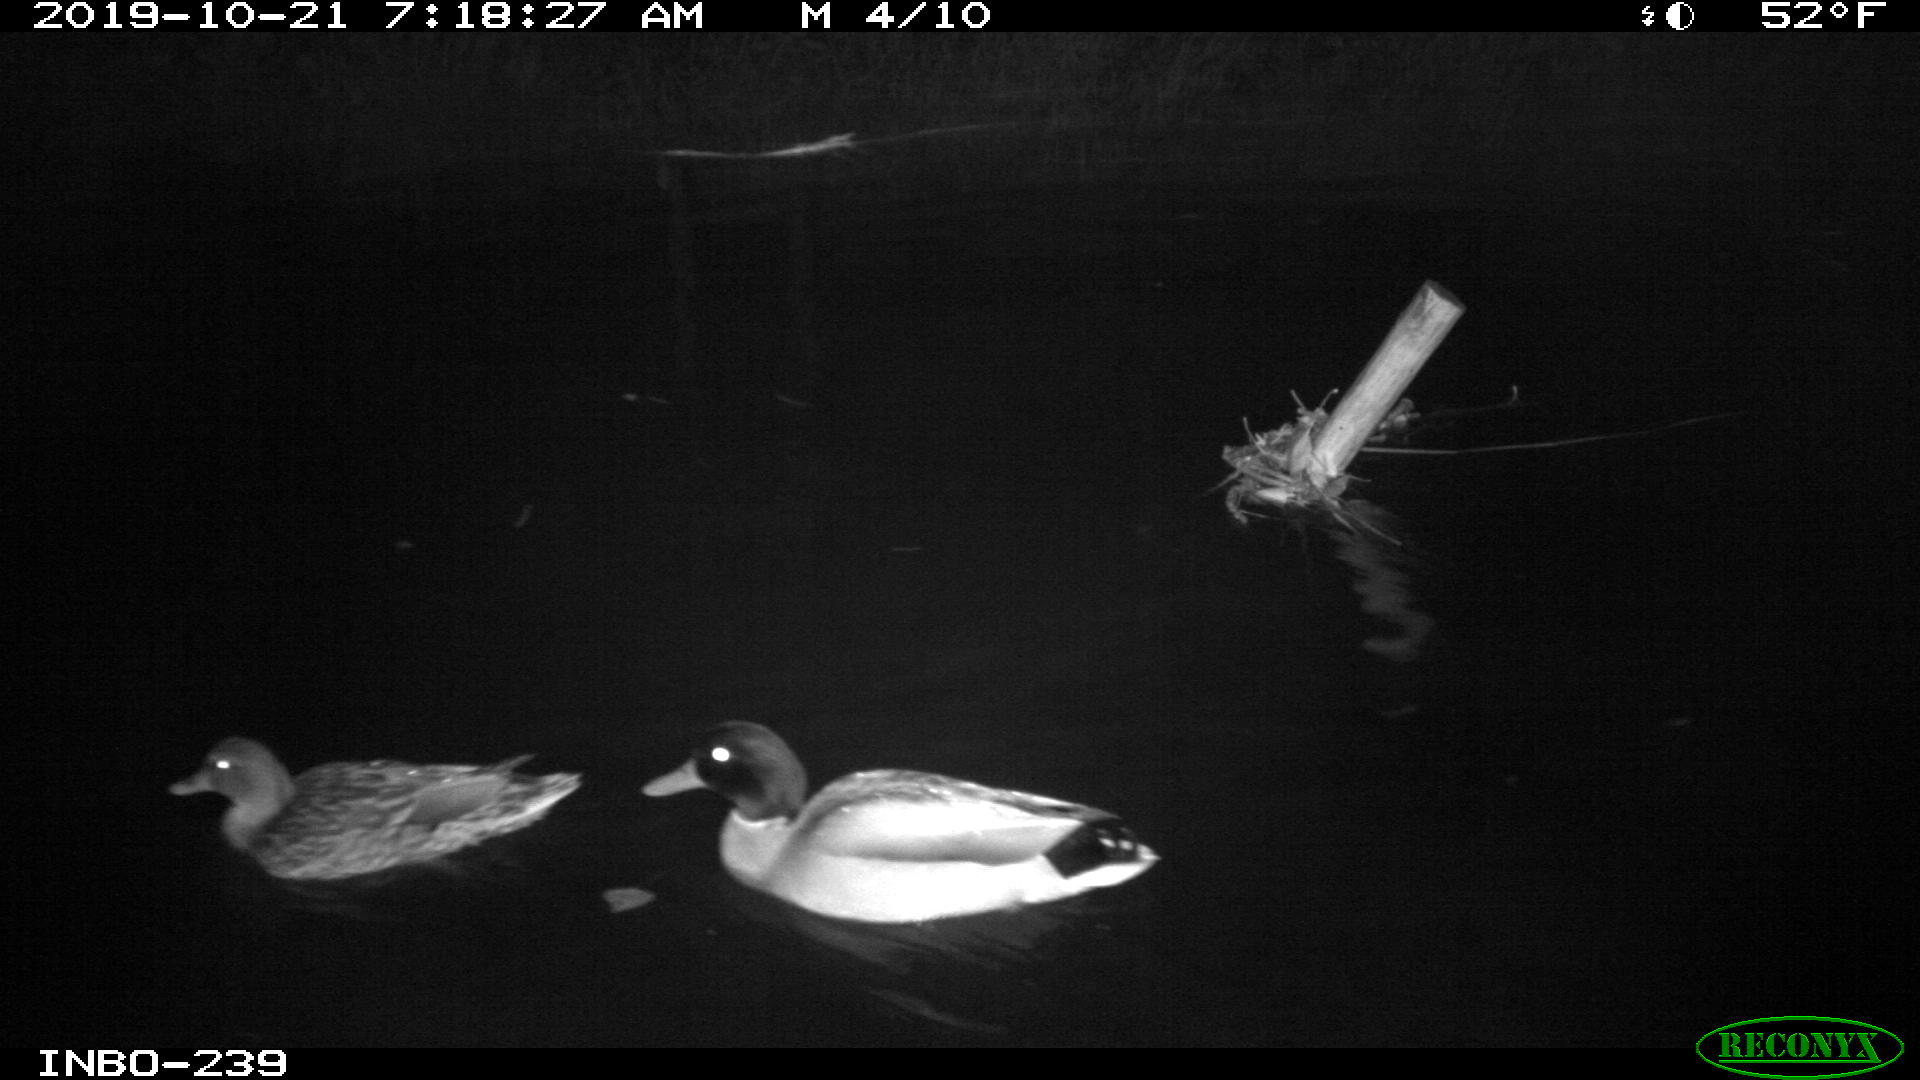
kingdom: Animalia
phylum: Chordata
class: Aves
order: Anseriformes
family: Anatidae
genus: Anas
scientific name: Anas platyrhynchos
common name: Mallard
